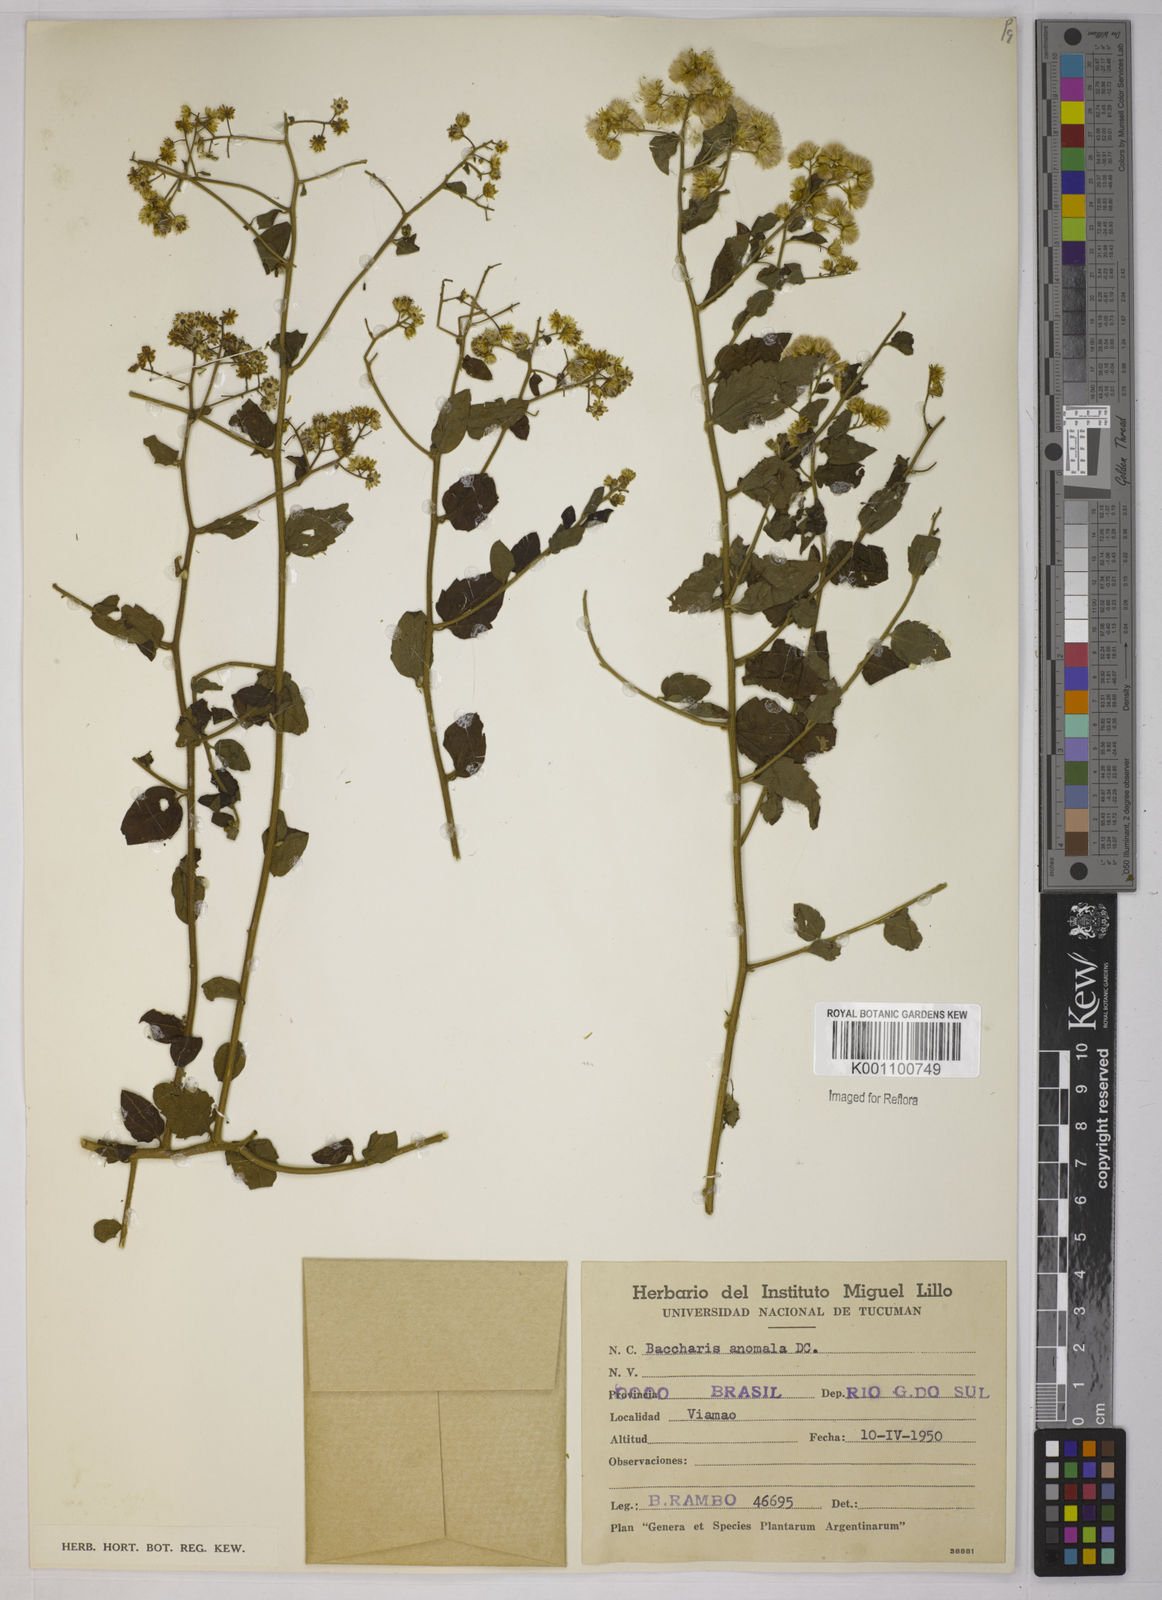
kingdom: Plantae
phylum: Tracheophyta
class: Magnoliopsida
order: Asterales
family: Asteraceae
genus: Baccharis
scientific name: Baccharis anomala
